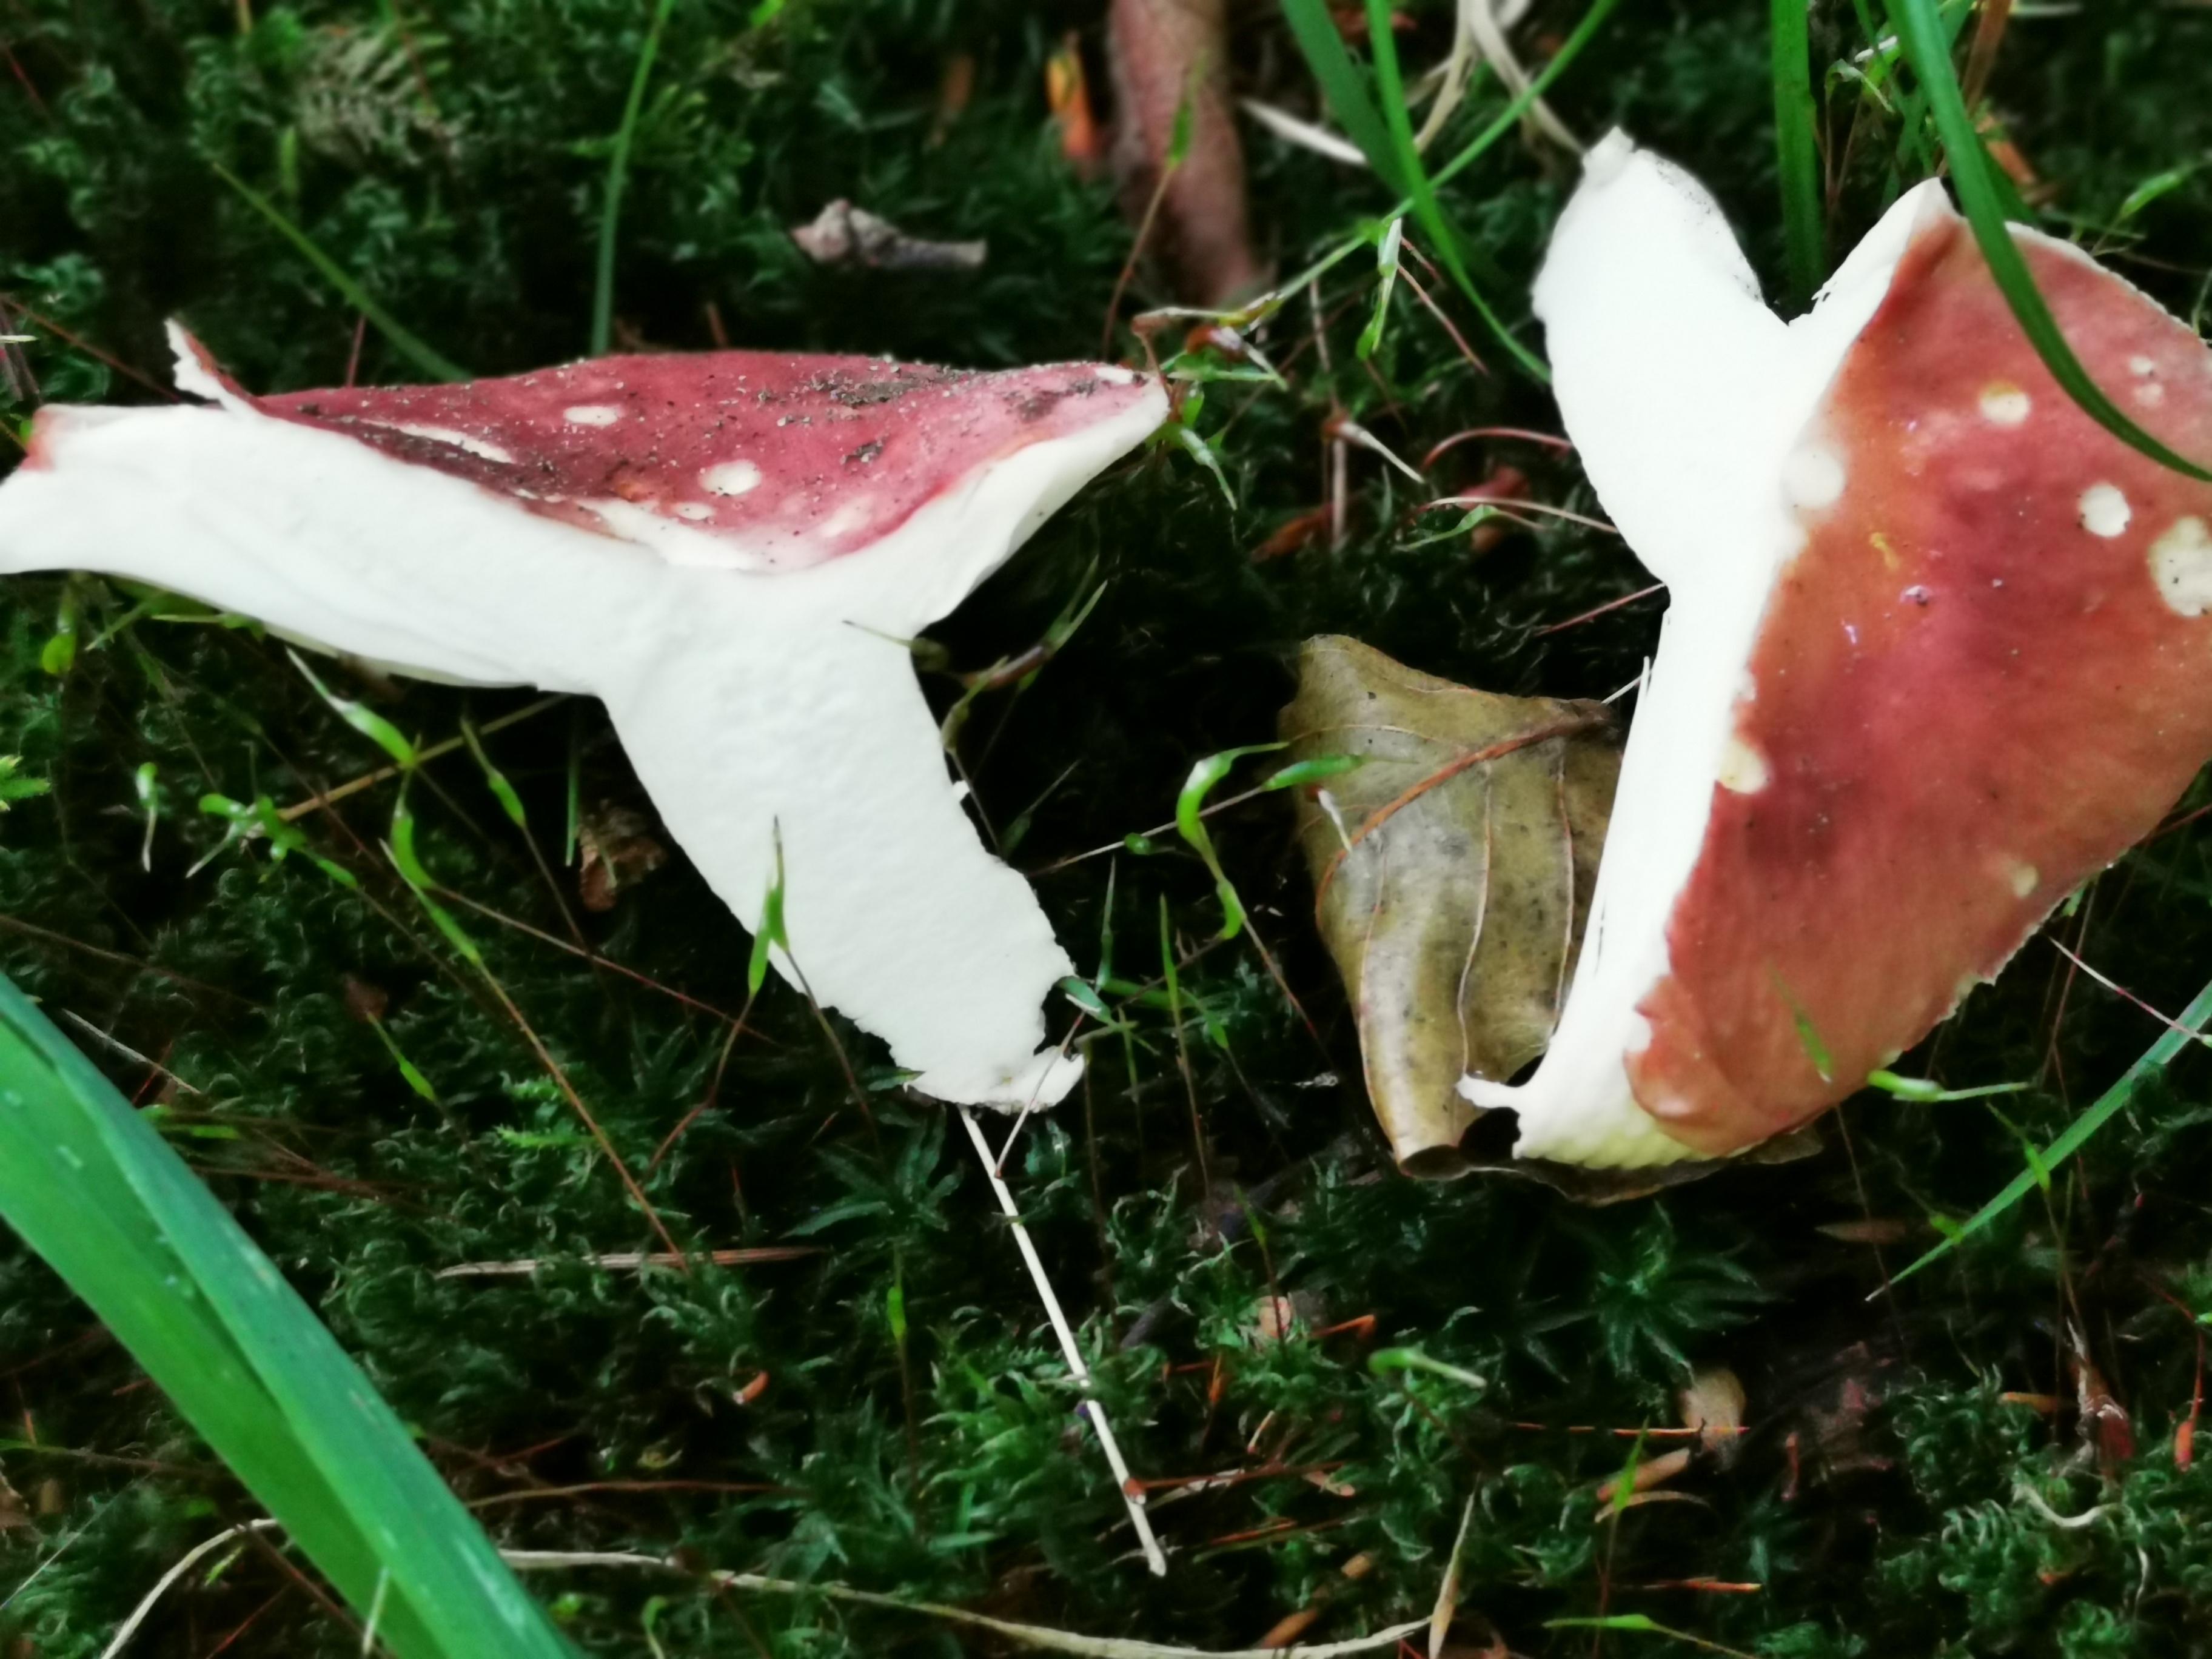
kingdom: Fungi
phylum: Basidiomycota
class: Agaricomycetes
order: Russulales
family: Russulaceae
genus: Russula
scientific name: Russula vesca
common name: spiselig skørhat
